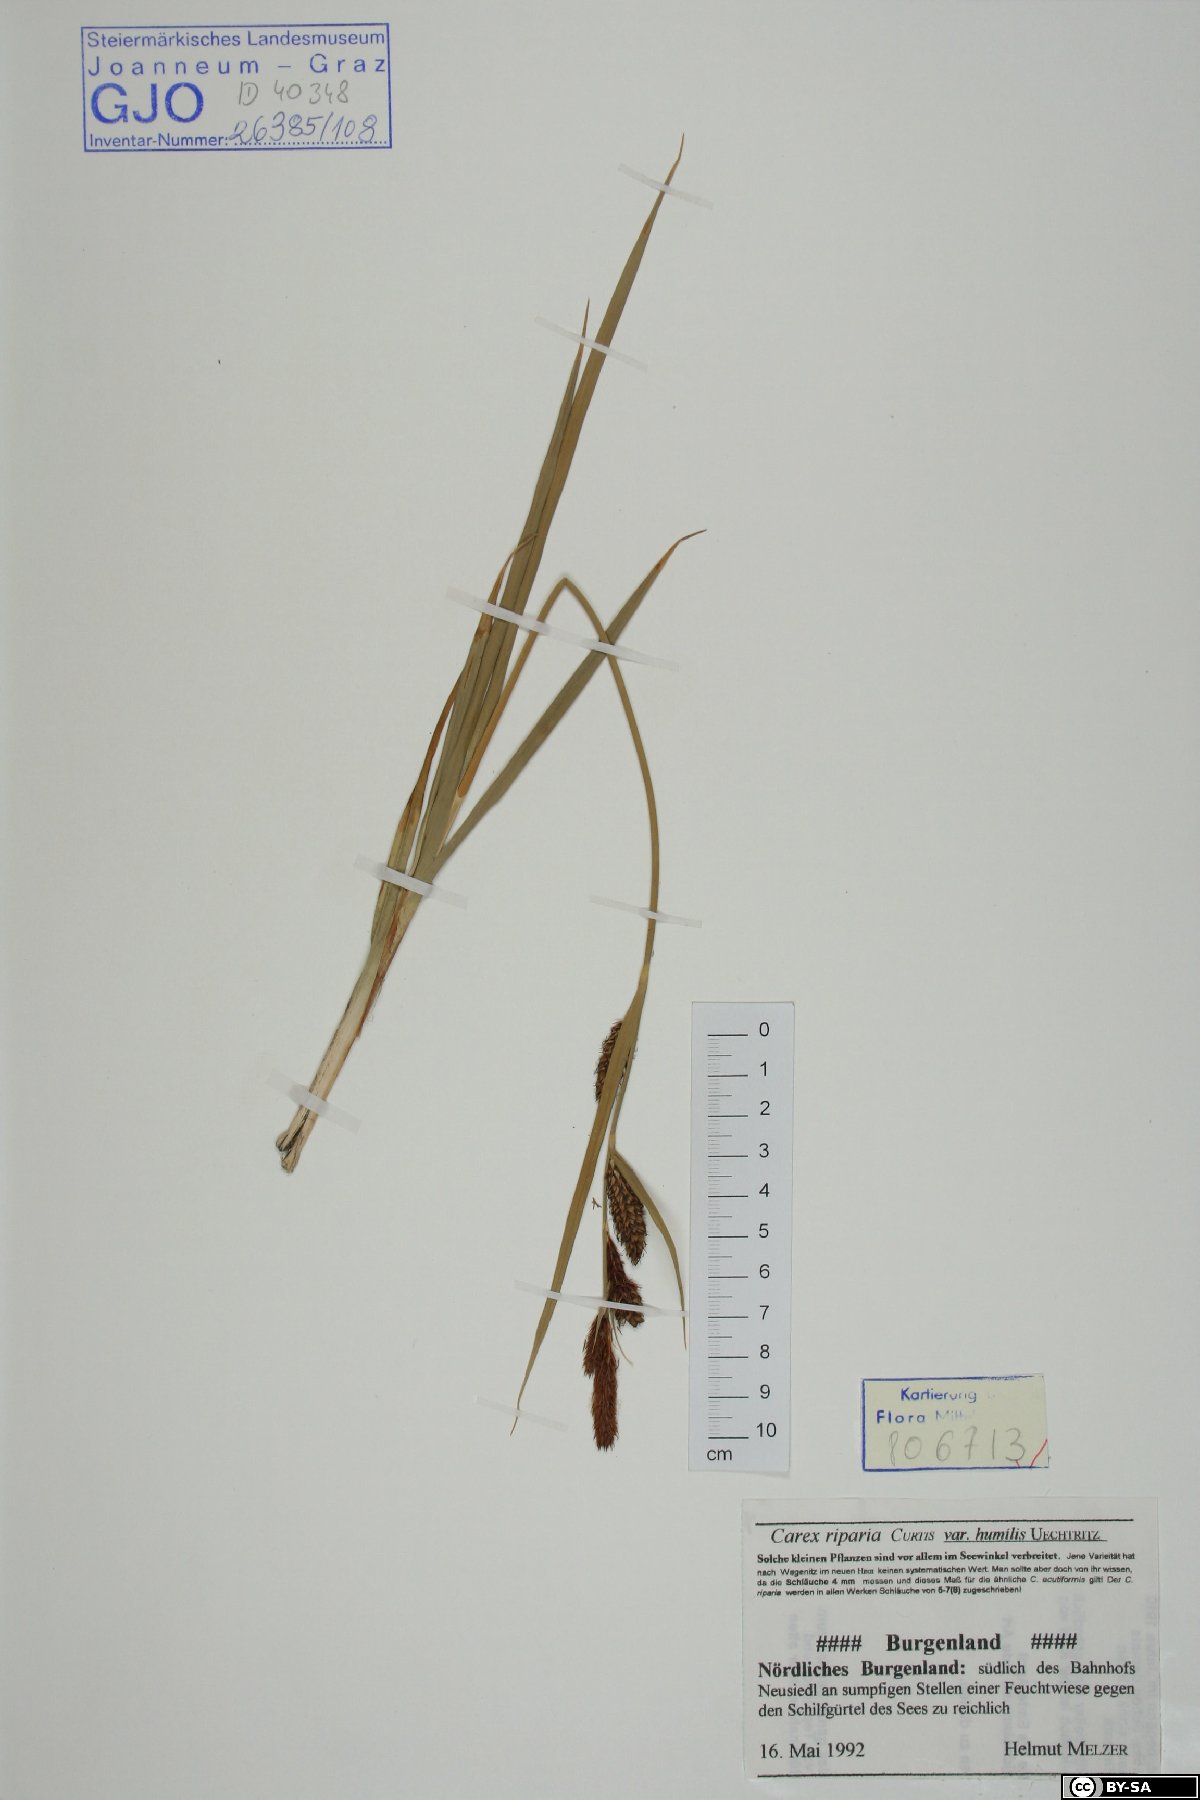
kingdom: Plantae
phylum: Tracheophyta
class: Liliopsida
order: Poales
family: Cyperaceae
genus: Carex
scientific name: Carex riparia
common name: Greater pond-sedge
